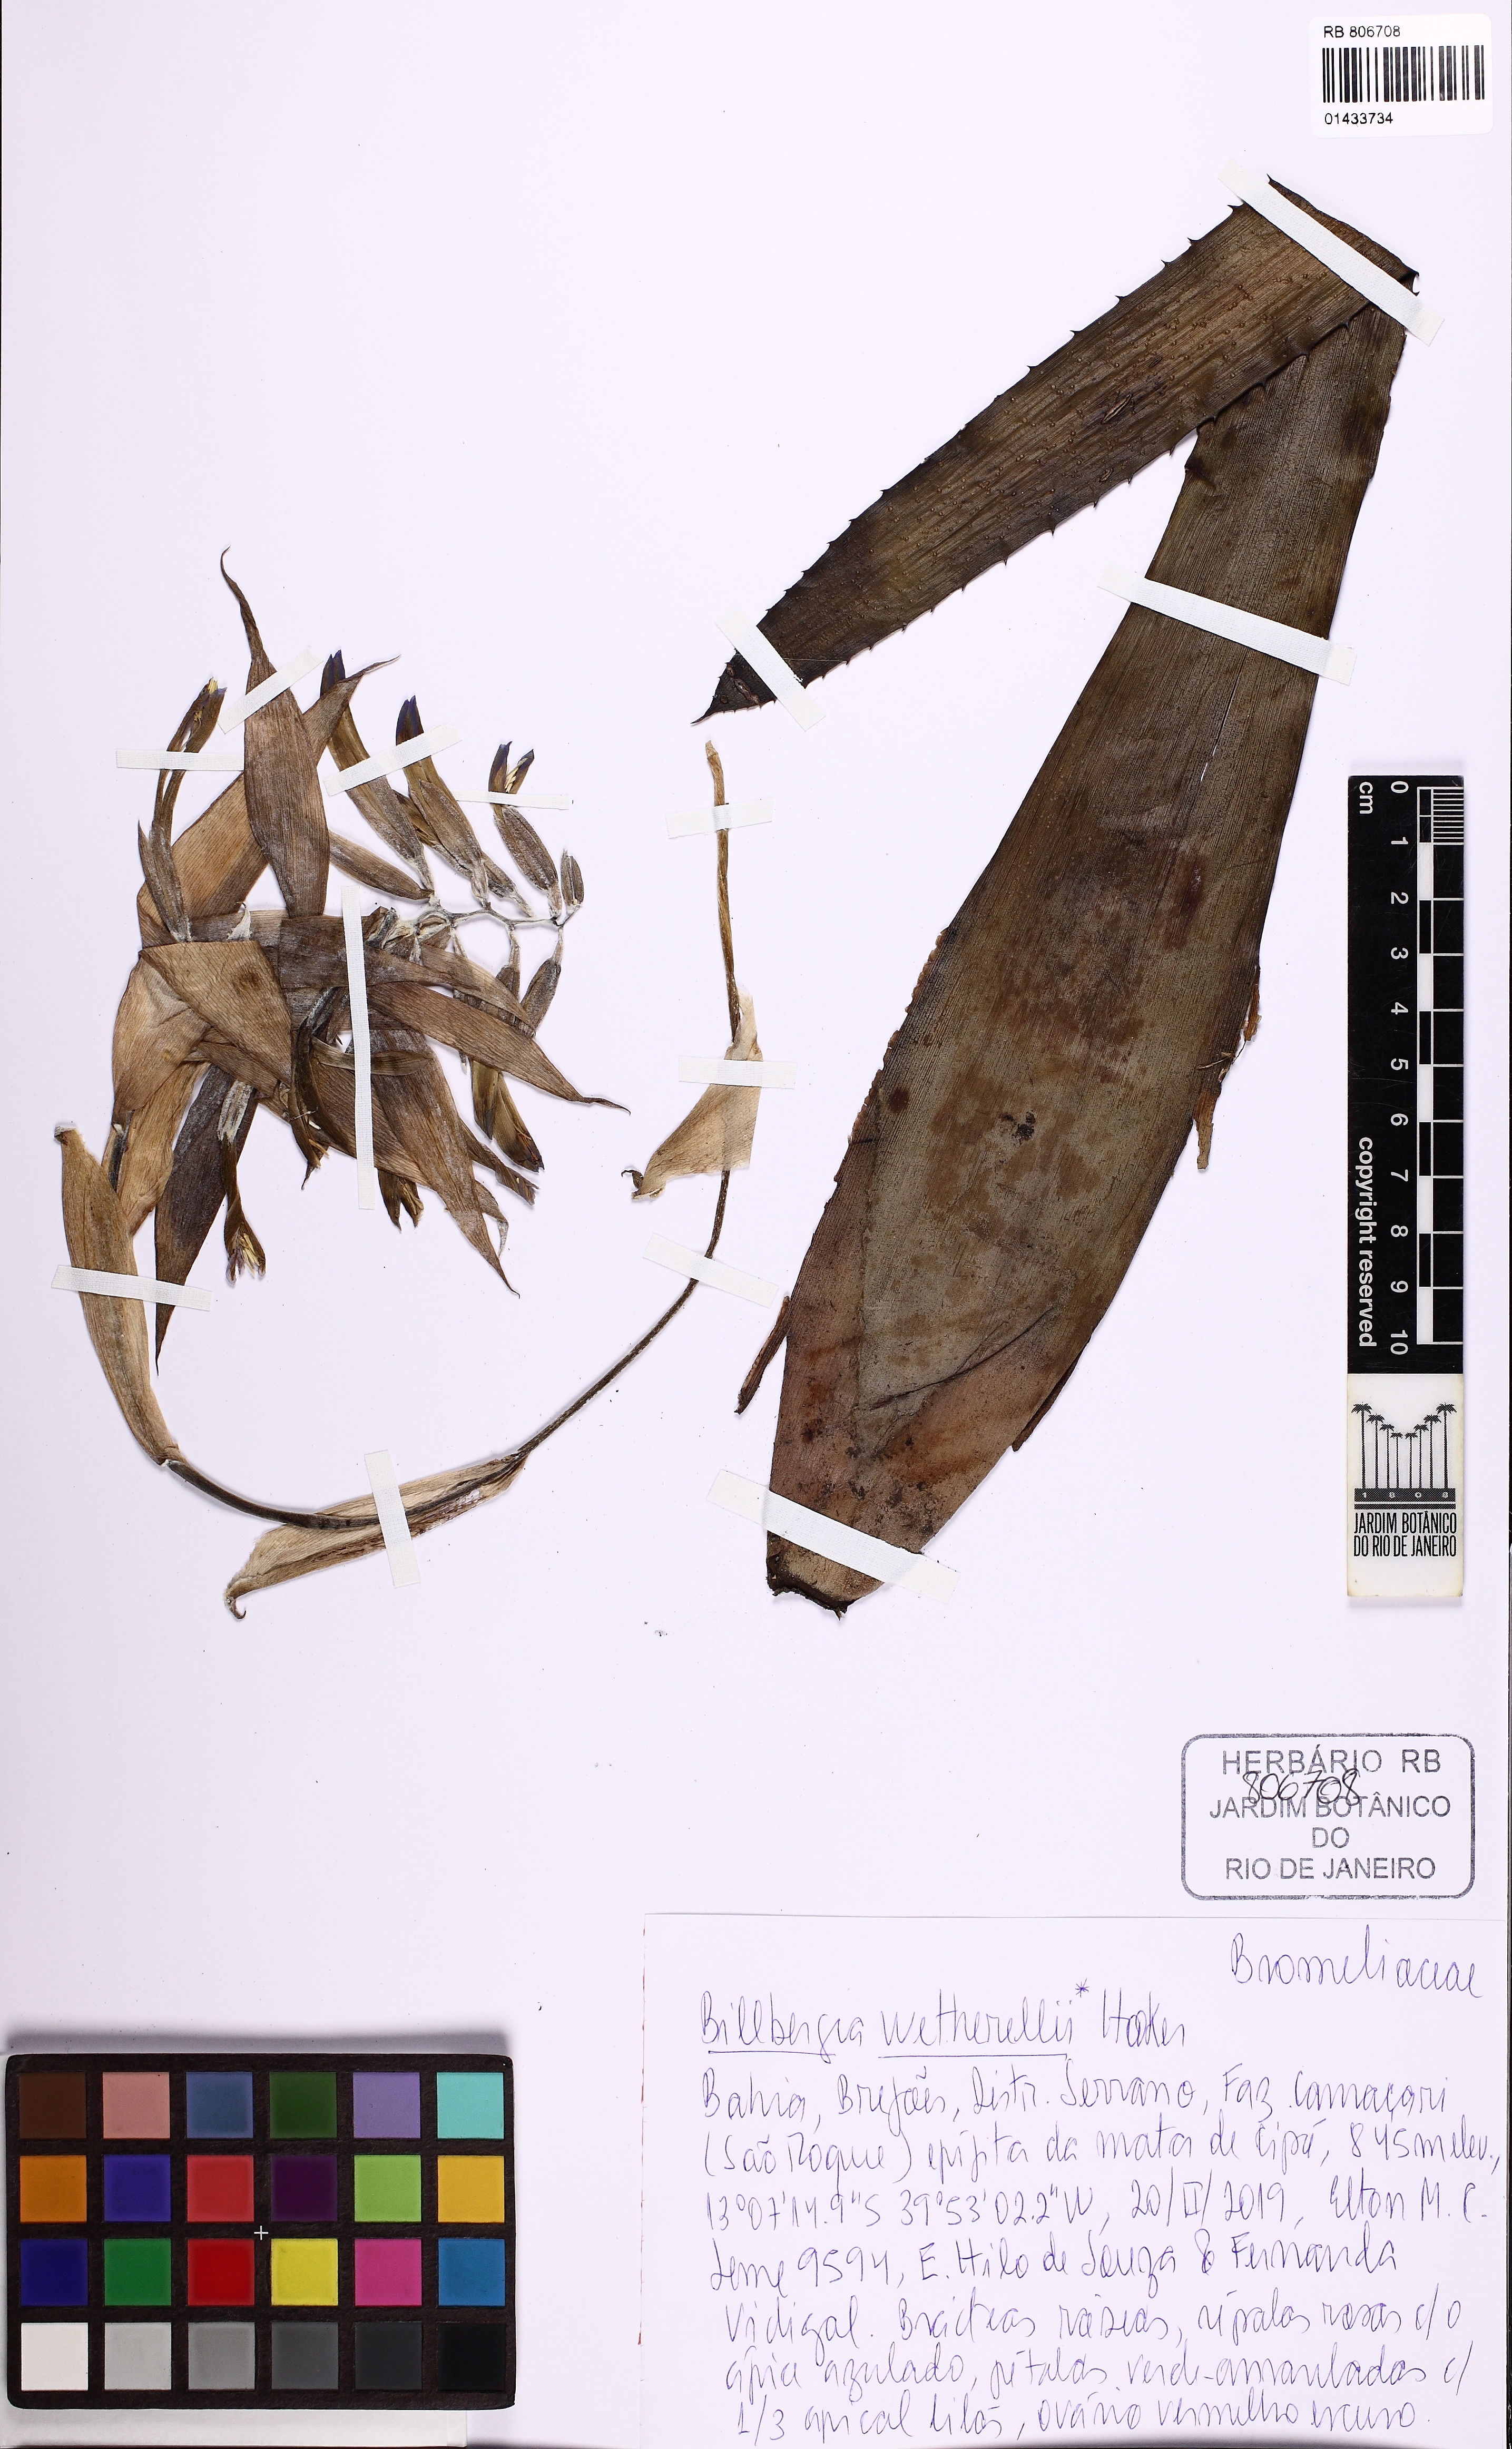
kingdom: Plantae
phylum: Tracheophyta
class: Liliopsida
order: Poales
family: Bromeliaceae
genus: Billbergia
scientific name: Billbergia morelii
